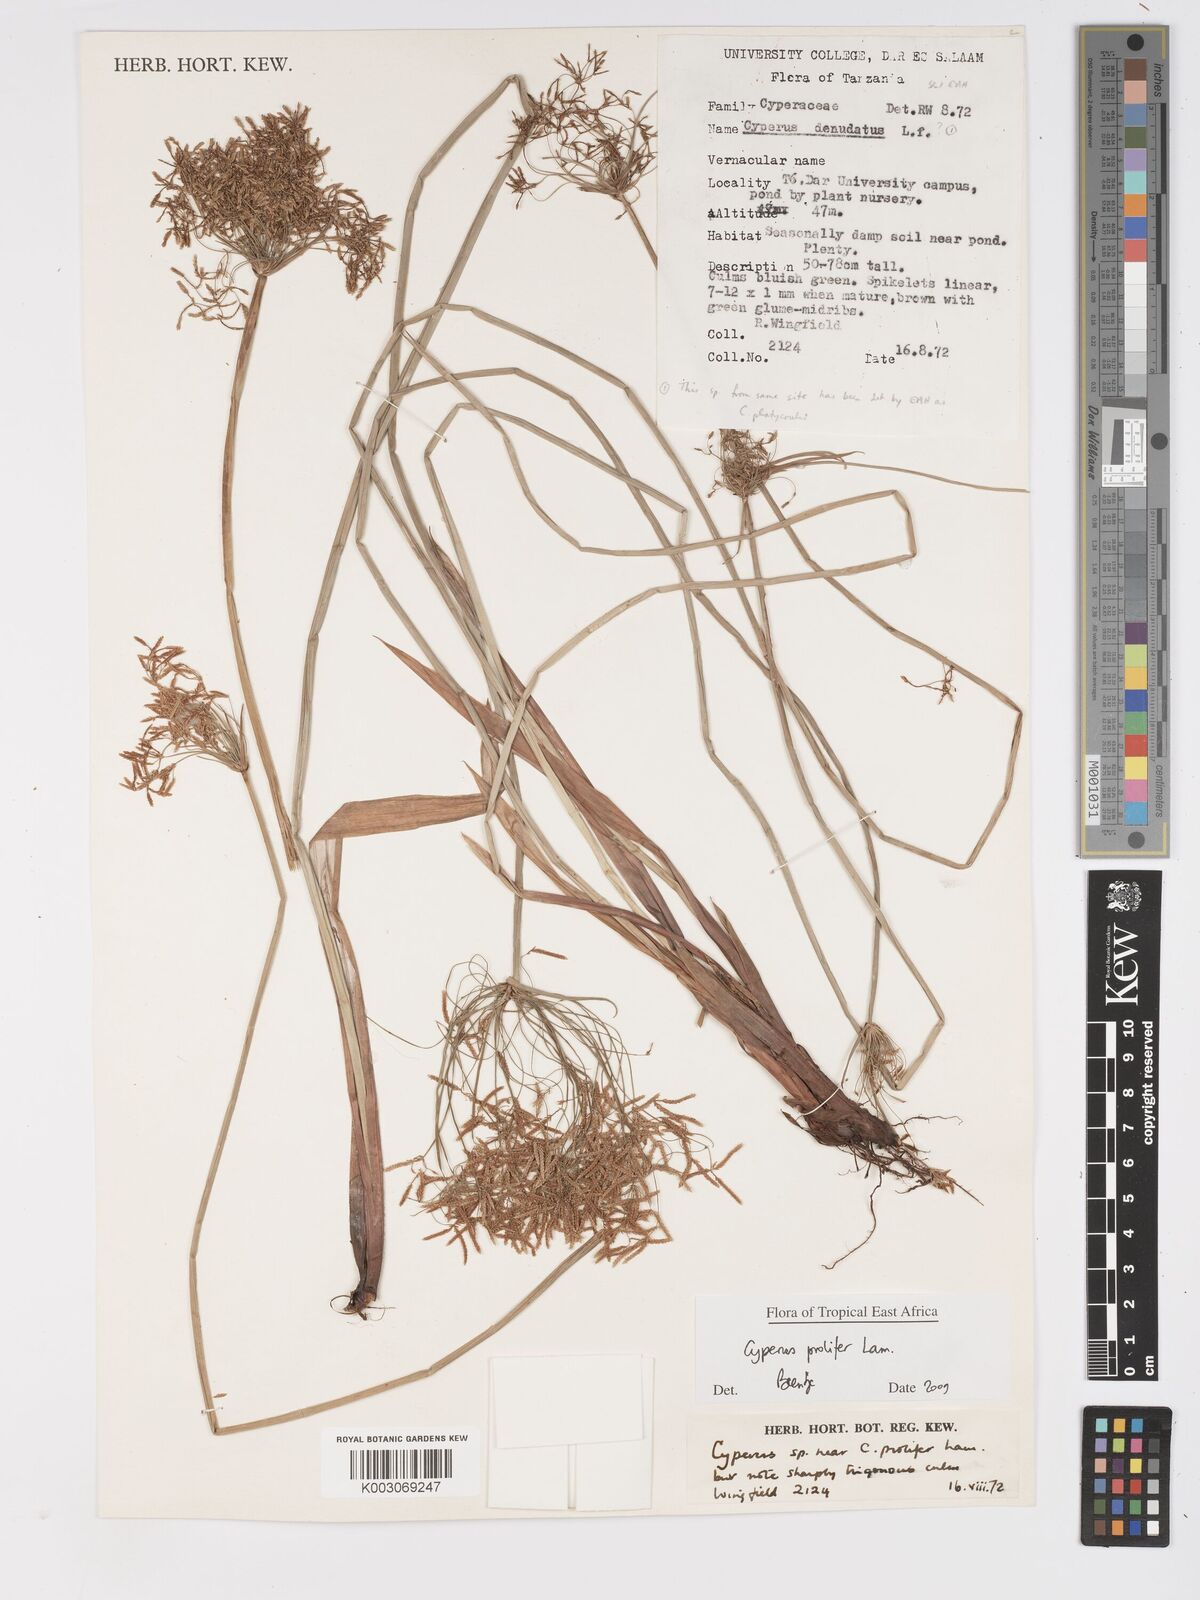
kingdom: Plantae
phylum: Tracheophyta
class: Liliopsida
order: Poales
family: Cyperaceae
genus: Cyperus
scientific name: Cyperus prolifer
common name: Miniature flatsedge
